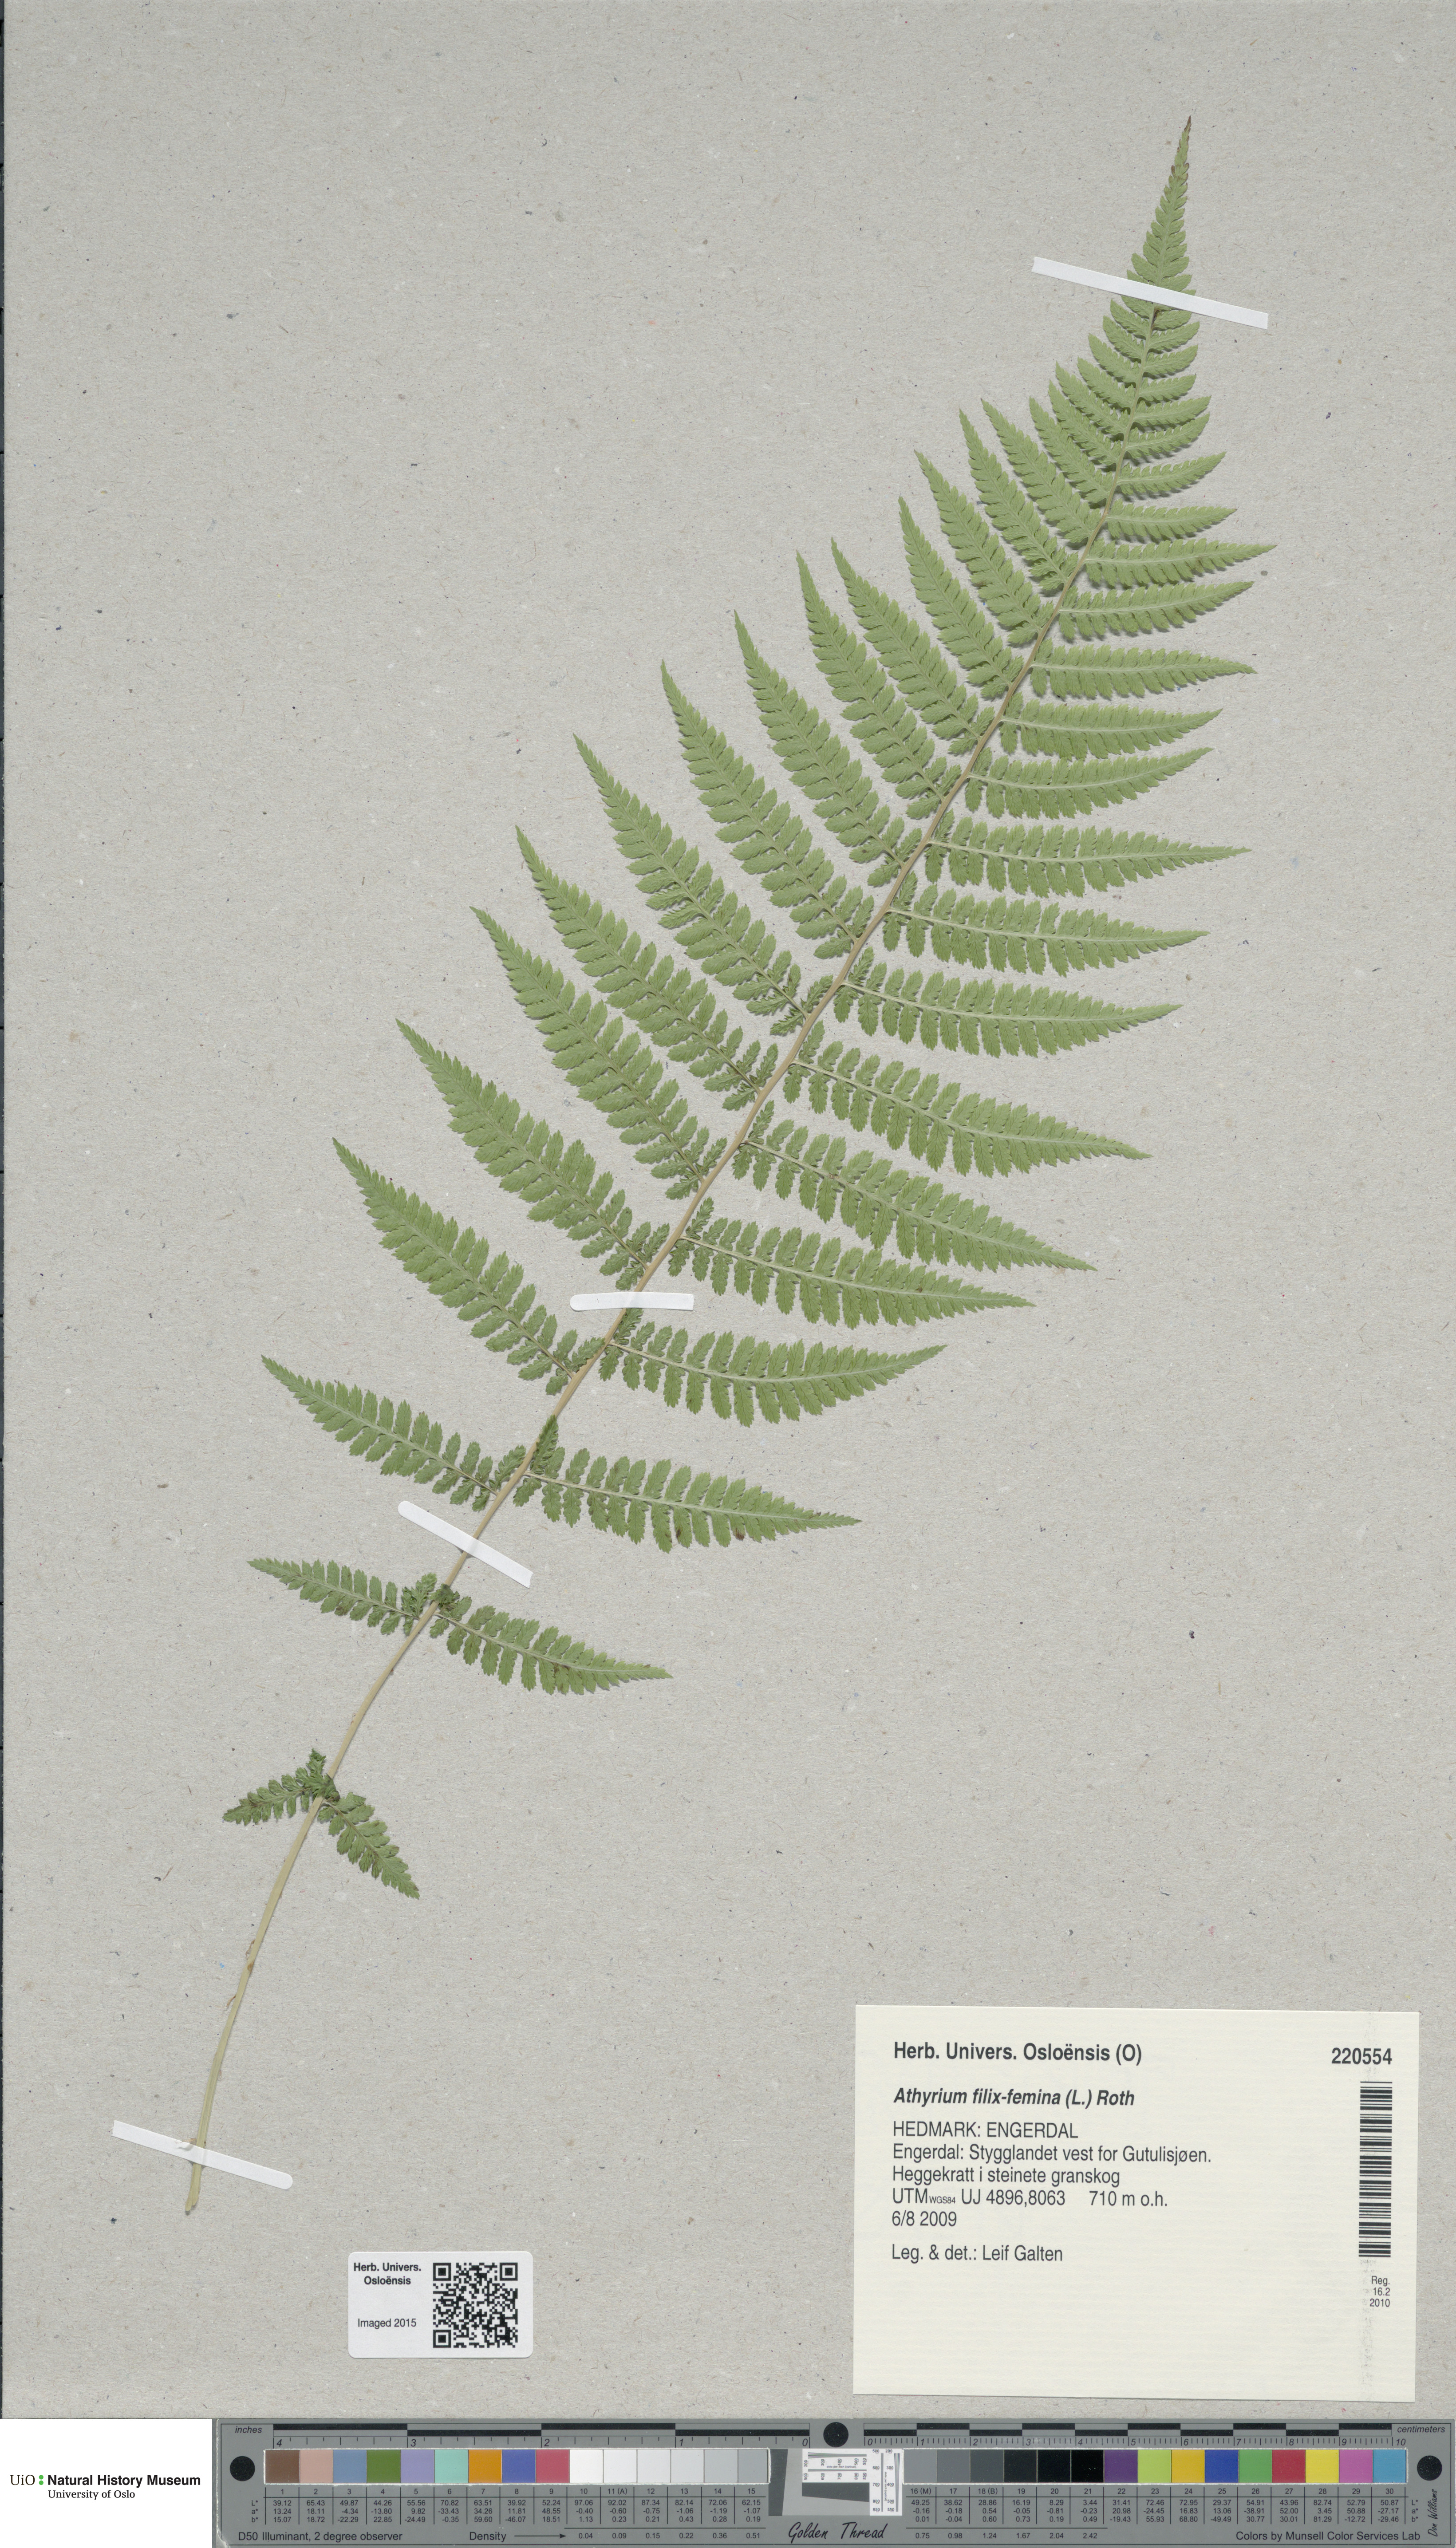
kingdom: Plantae
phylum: Tracheophyta
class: Polypodiopsida
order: Polypodiales
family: Athyriaceae
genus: Athyrium
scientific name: Athyrium filix-femina
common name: Lady fern
